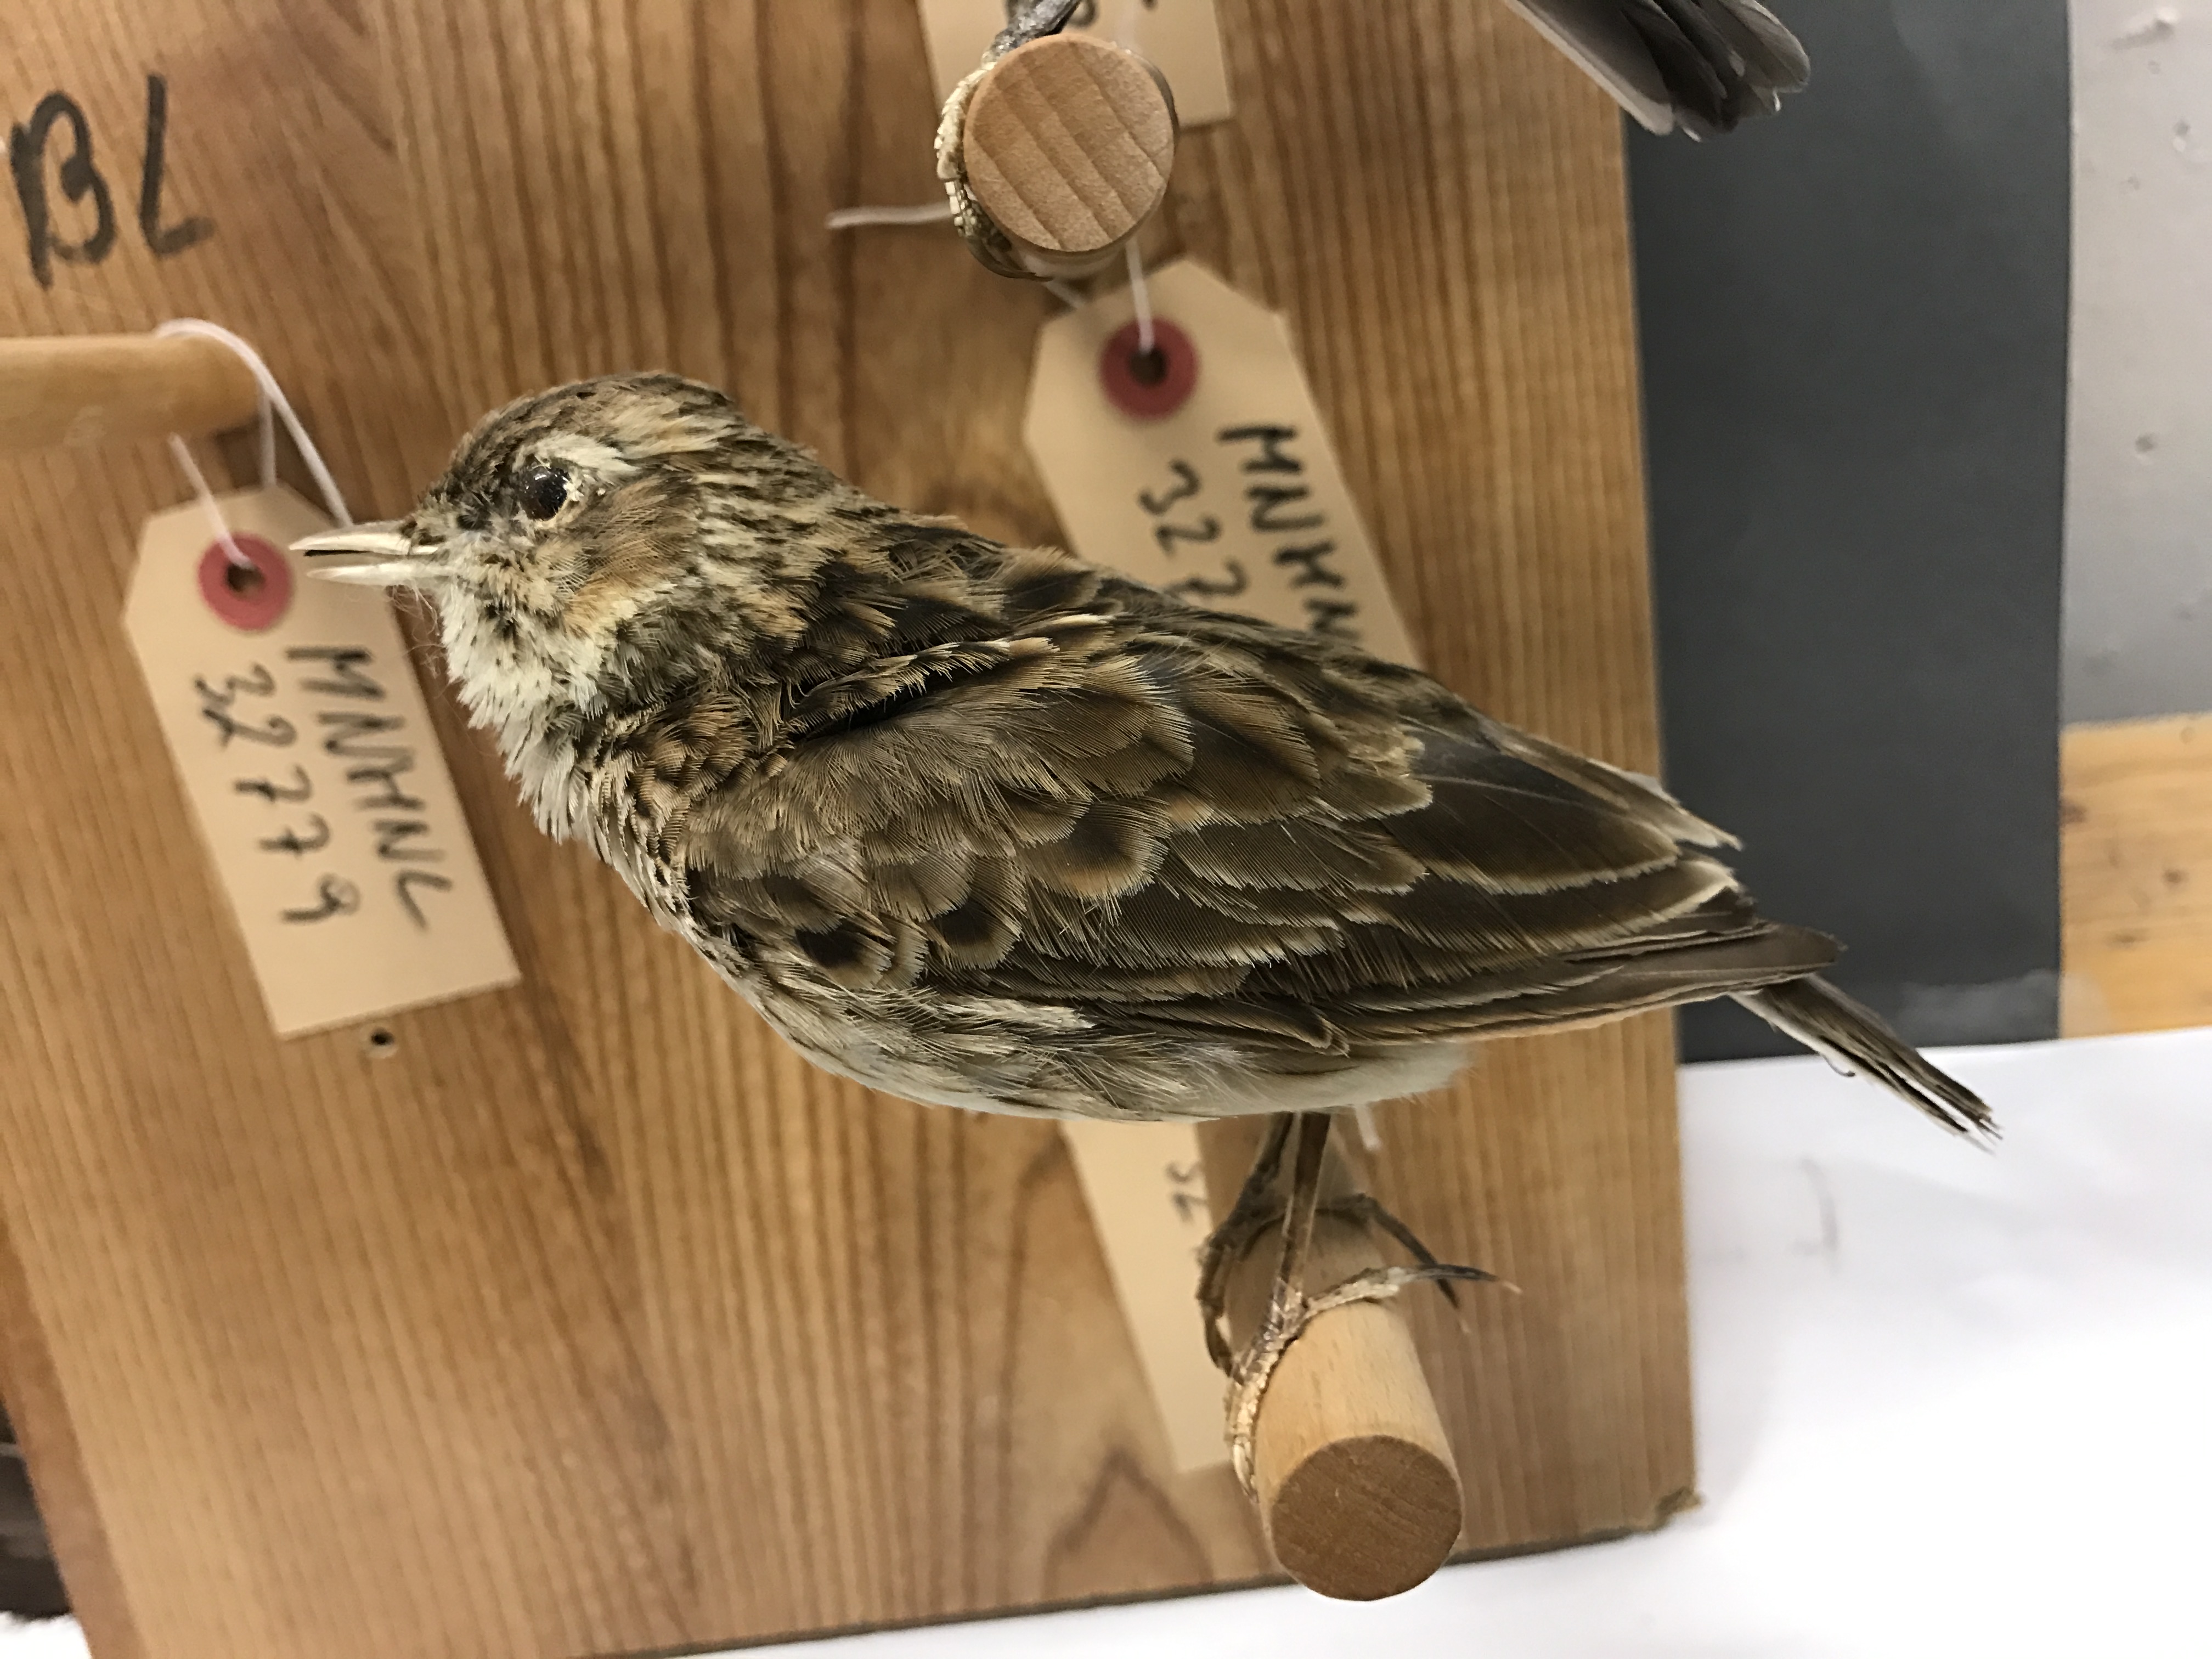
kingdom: Animalia
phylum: Chordata
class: Aves
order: Passeriformes
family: Alaudidae
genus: Alauda
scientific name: Alauda arvensis
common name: Eurasian skylark
